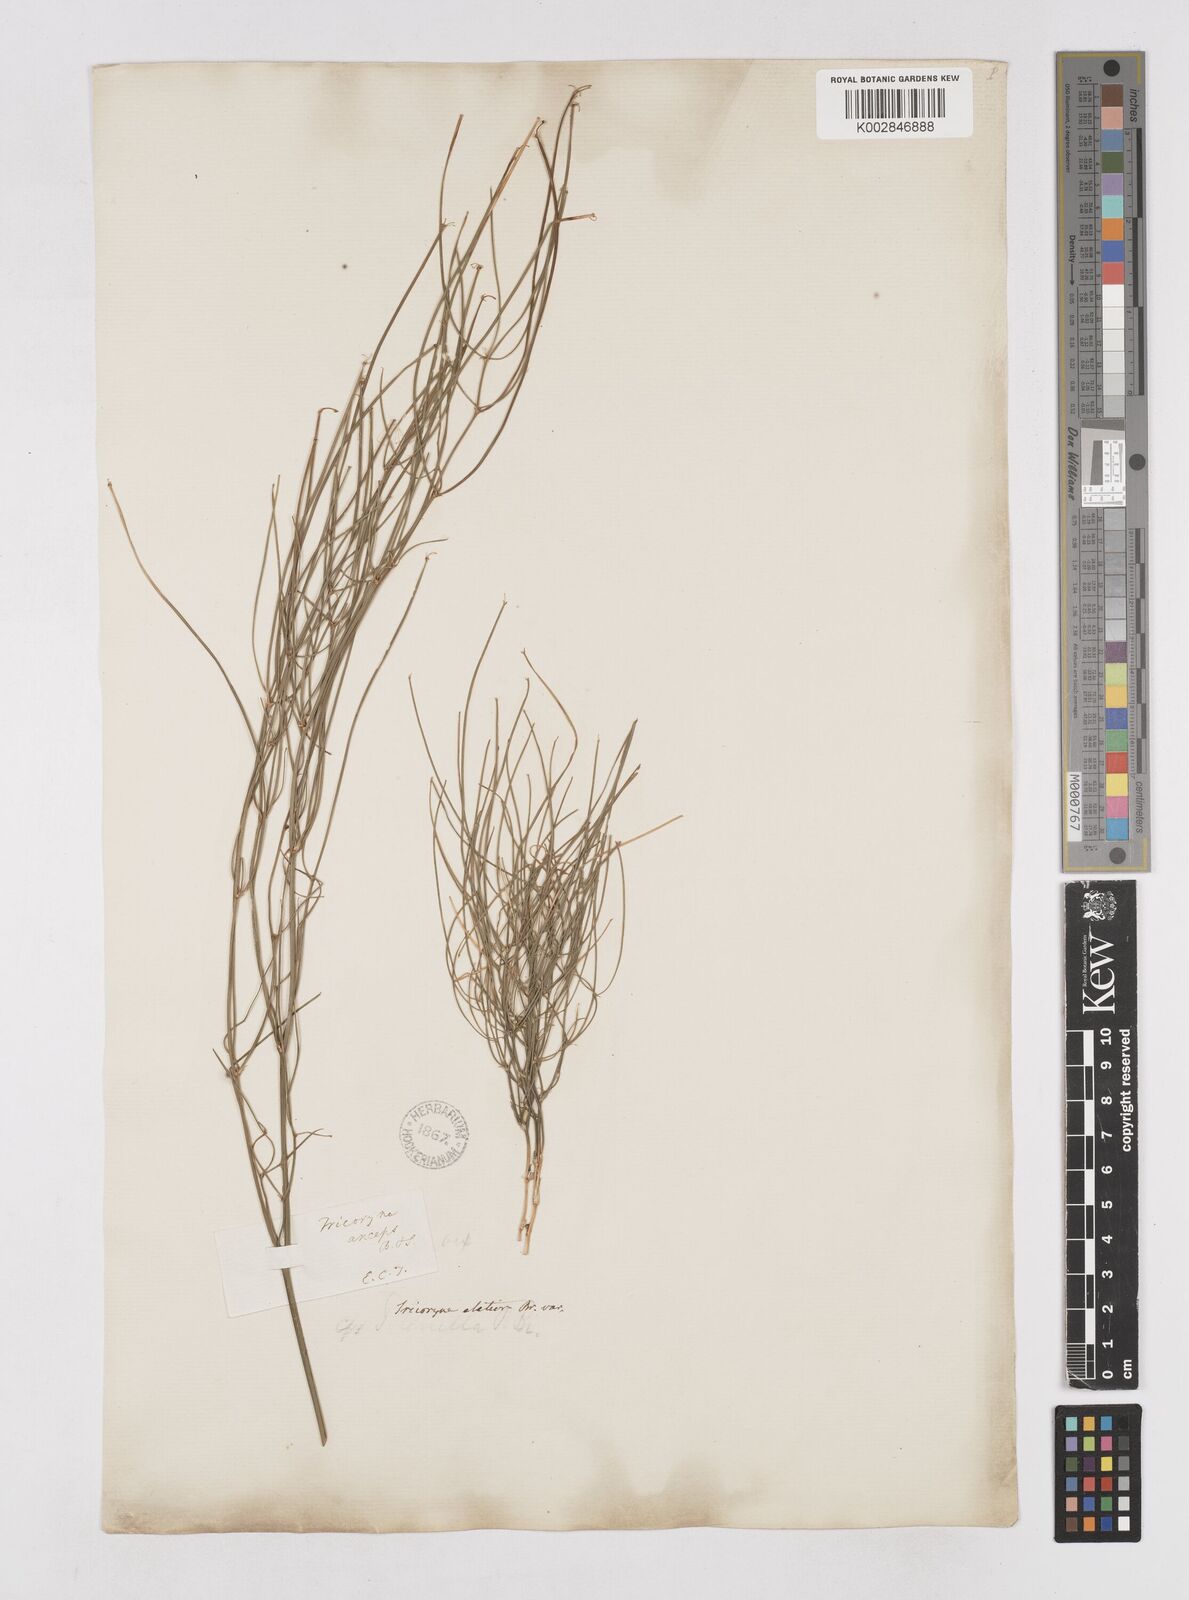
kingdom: Plantae
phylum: Tracheophyta
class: Liliopsida
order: Asparagales
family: Asphodelaceae
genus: Tricoryne
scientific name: Tricoryne elatior
